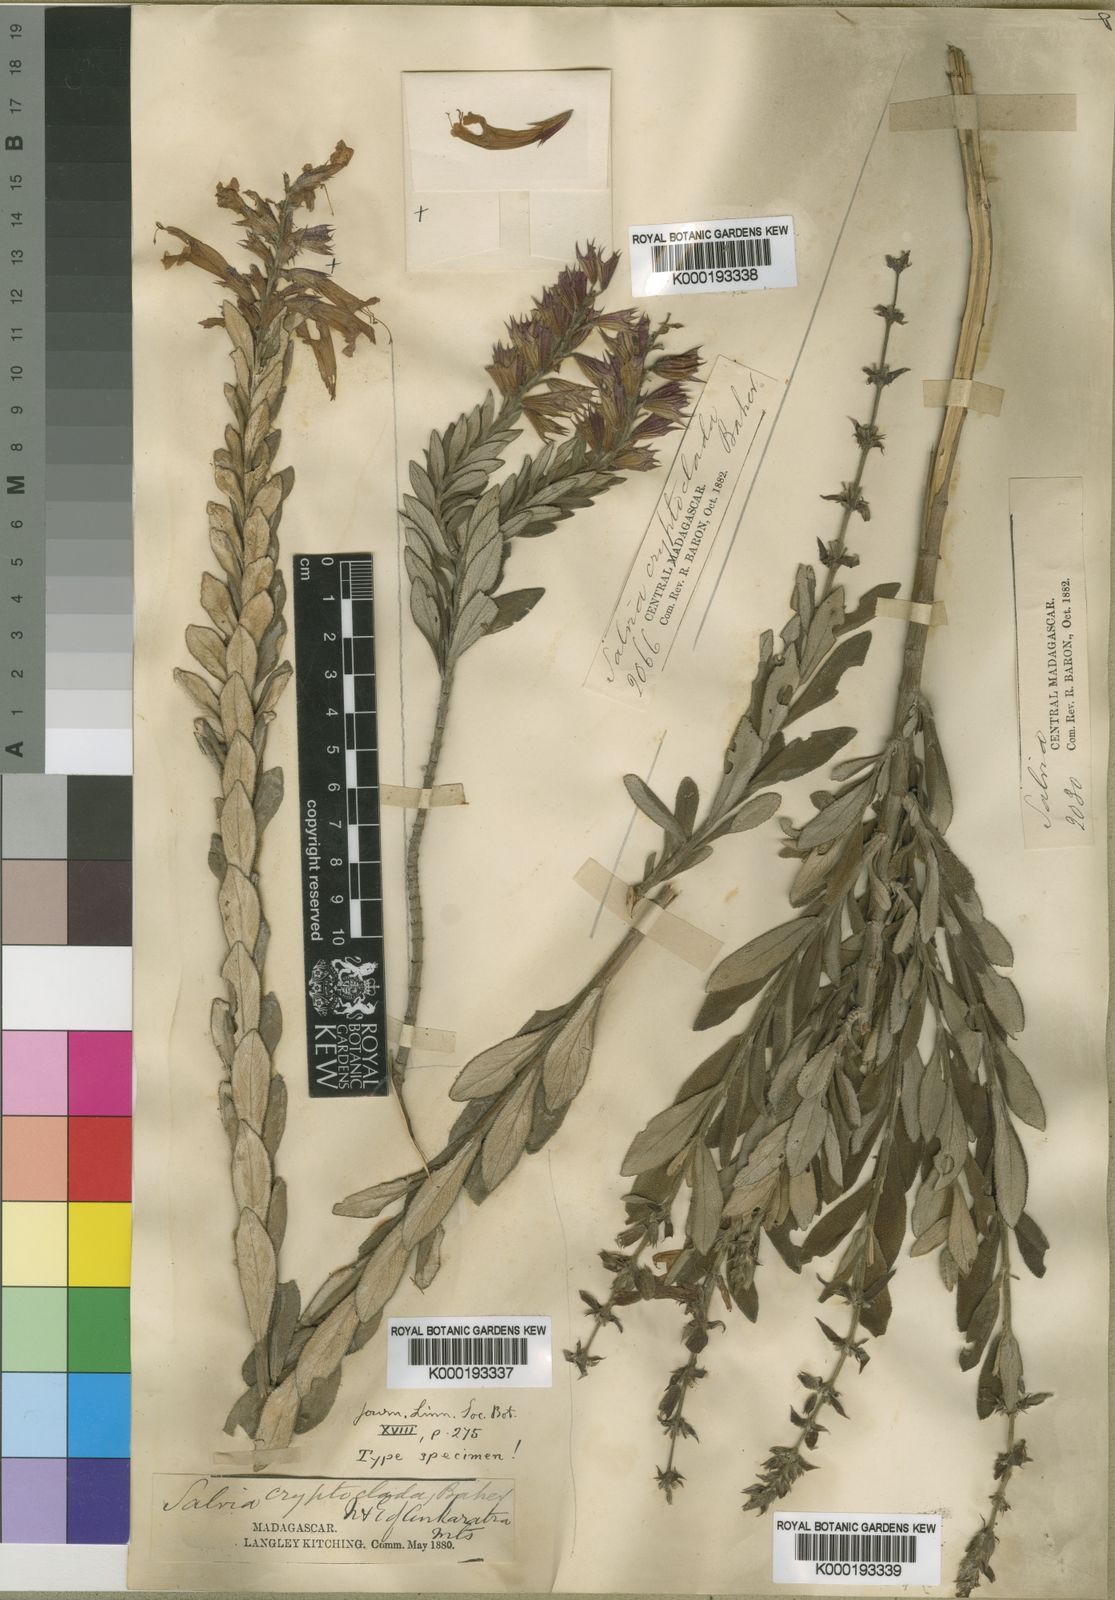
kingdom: Plantae
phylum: Tracheophyta
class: Magnoliopsida
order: Lamiales
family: Lamiaceae
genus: Salvia
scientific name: Salvia cryptoclada
